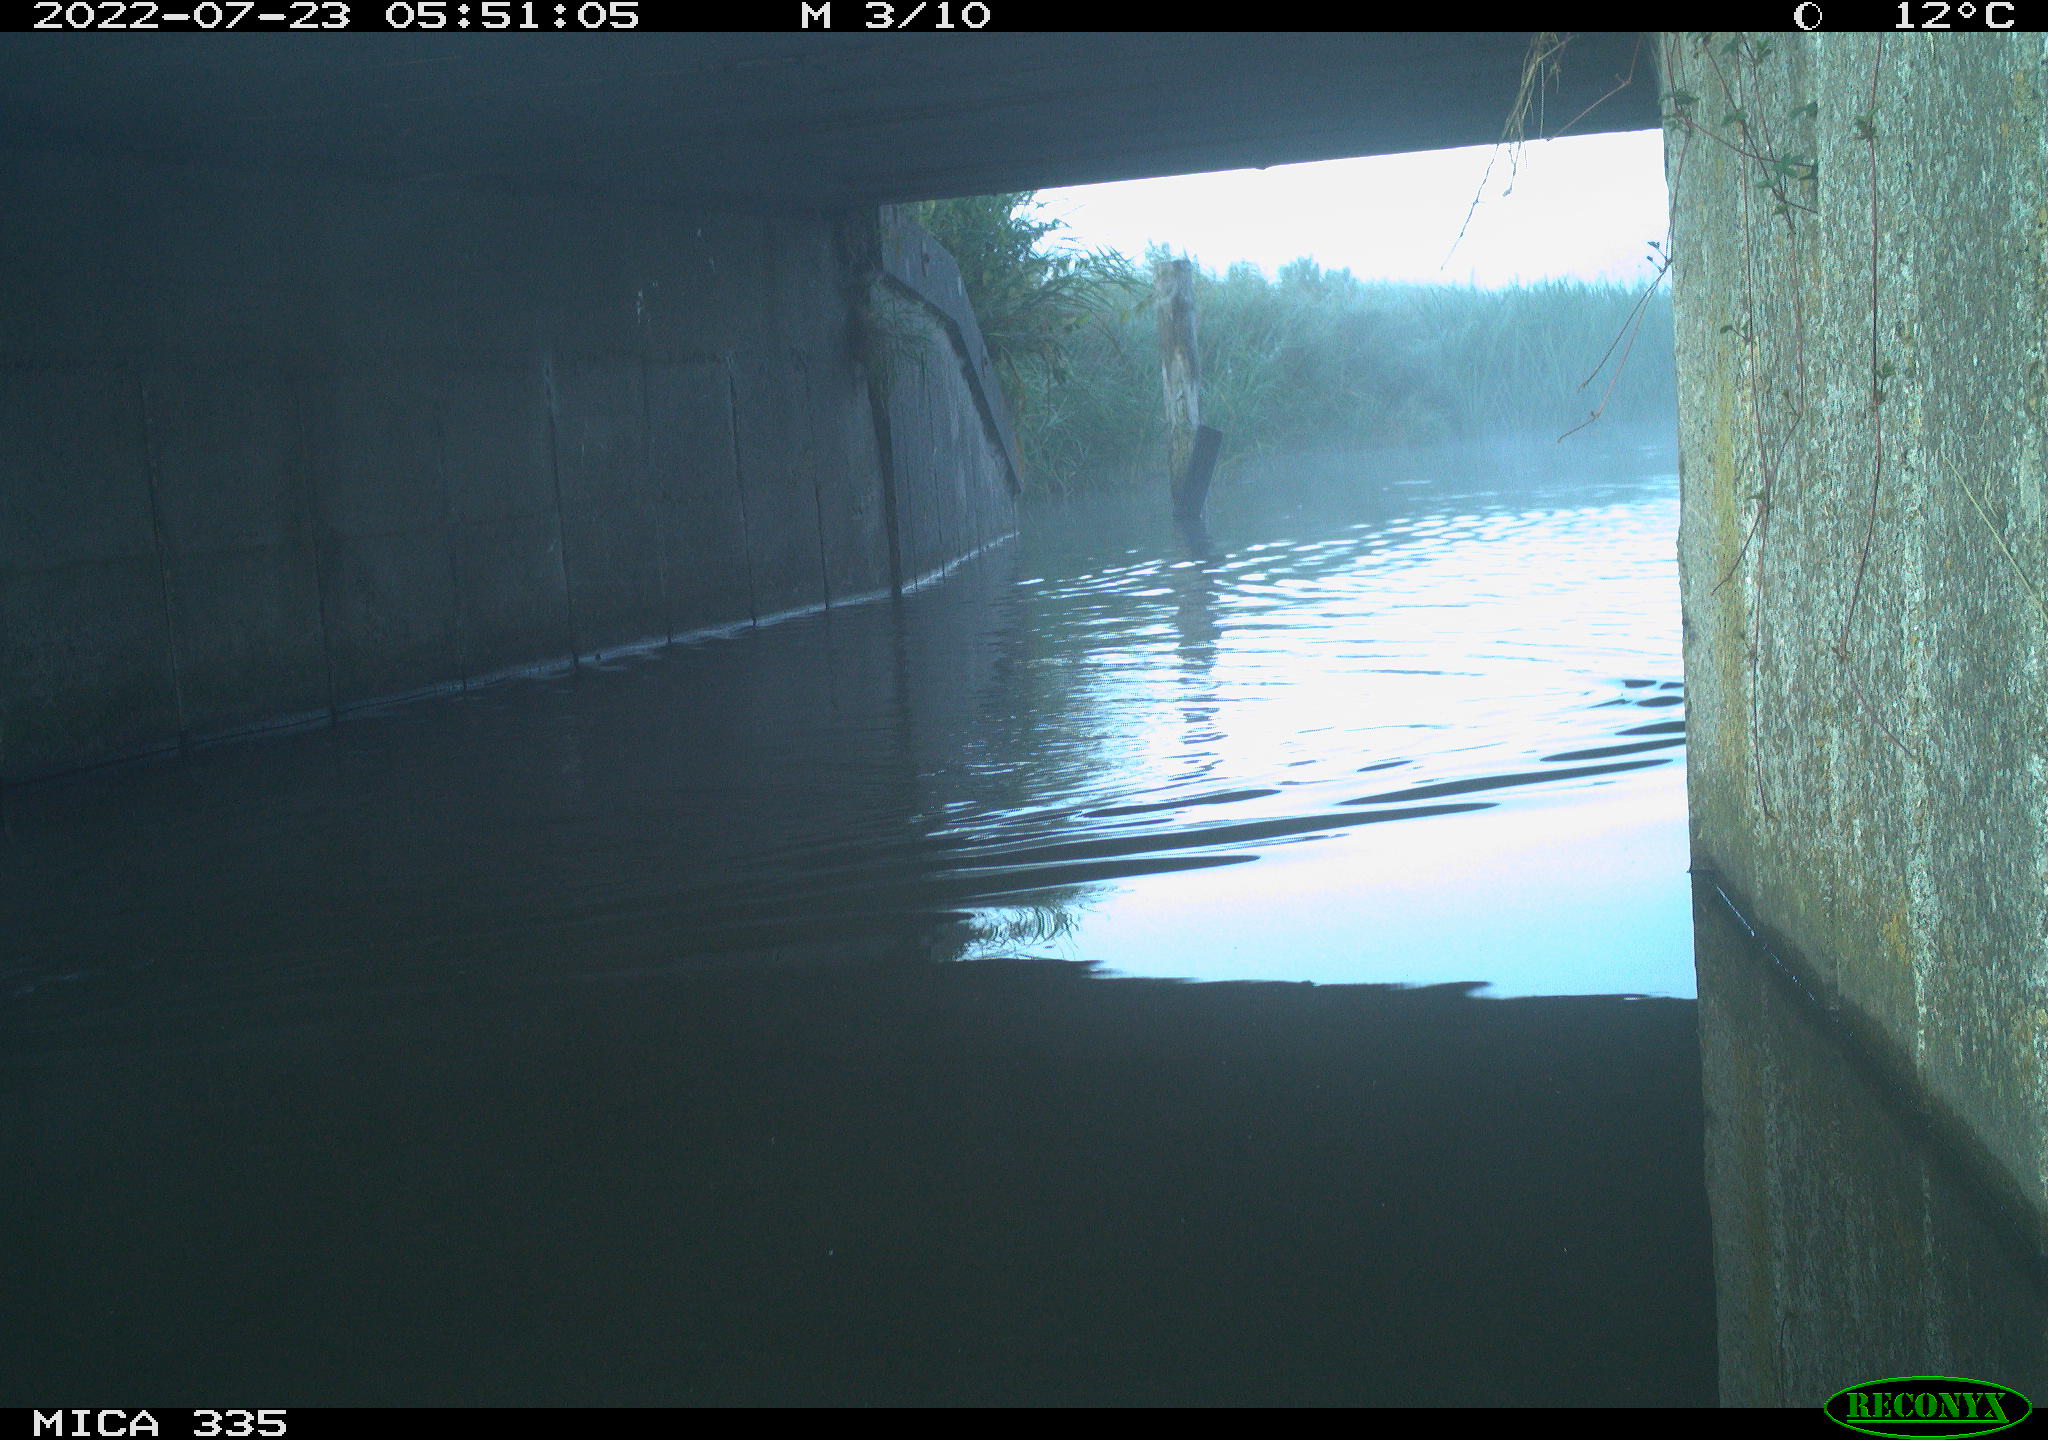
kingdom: Animalia
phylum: Chordata
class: Aves
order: Anseriformes
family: Anatidae
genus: Anas
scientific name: Anas platyrhynchos
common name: Mallard
